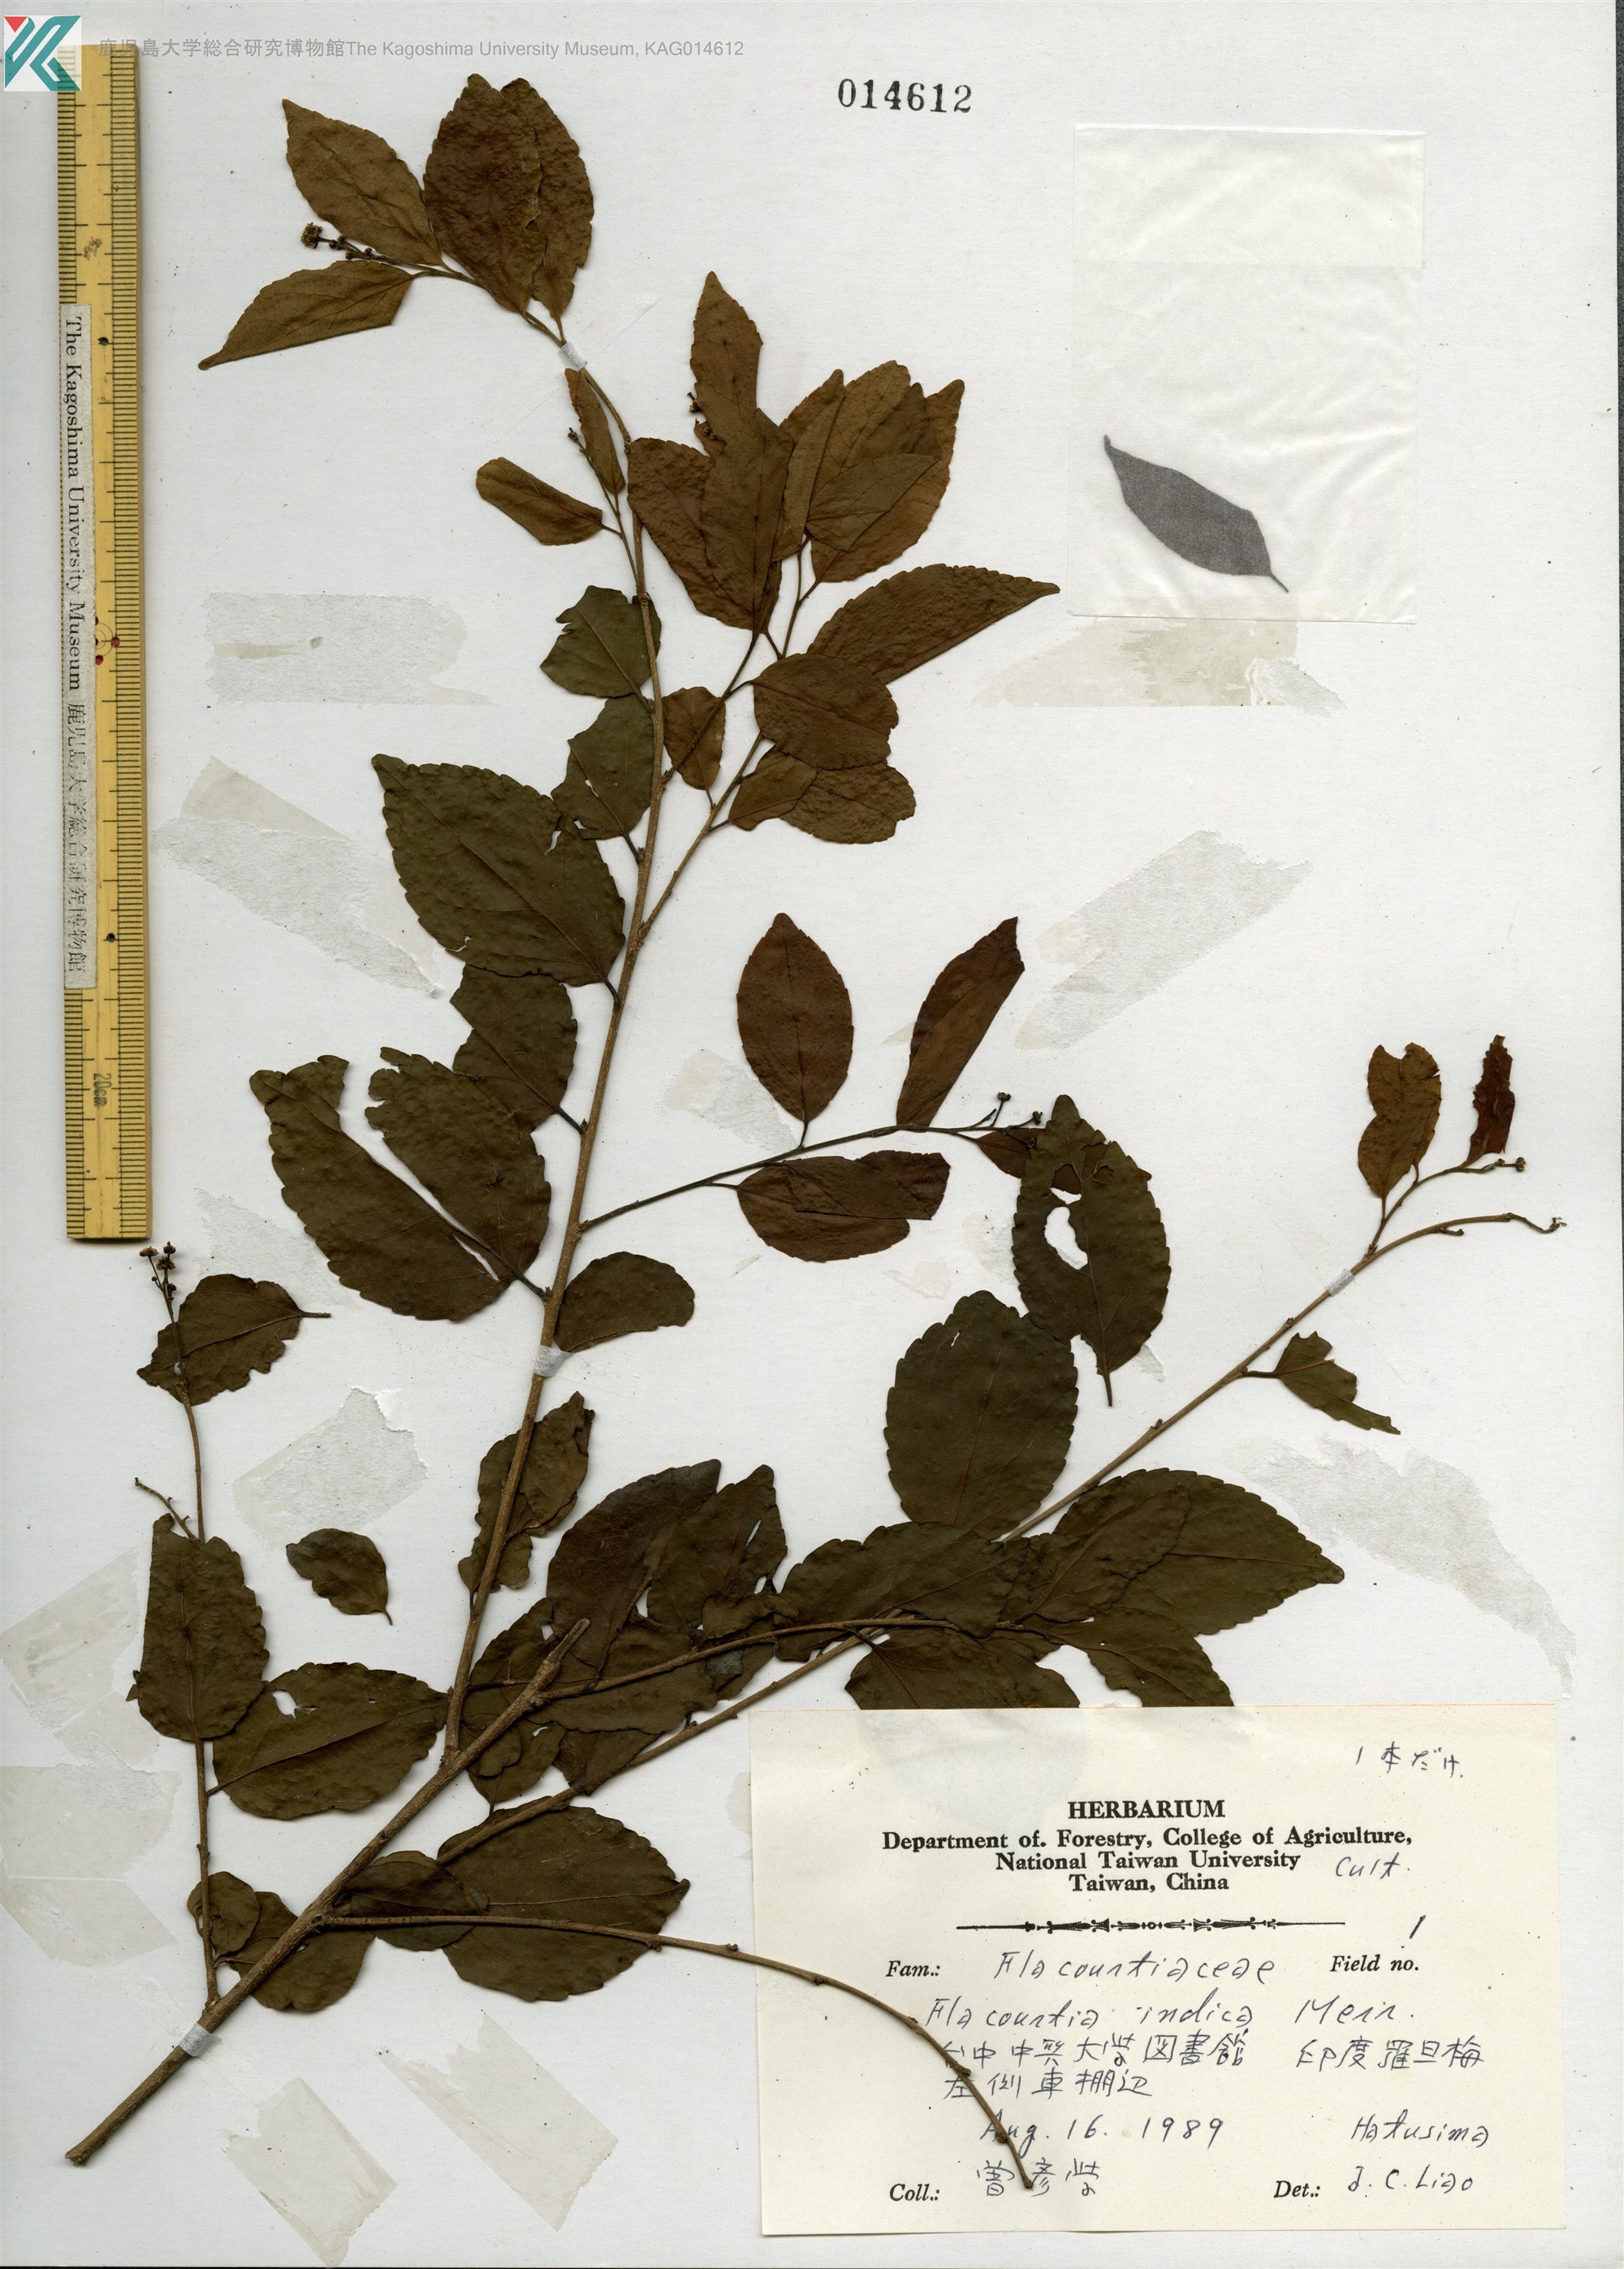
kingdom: Plantae
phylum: Tracheophyta
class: Magnoliopsida
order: Malpighiales
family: Salicaceae
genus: Flacourtia
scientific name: Flacourtia indica
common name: Governor's plum
